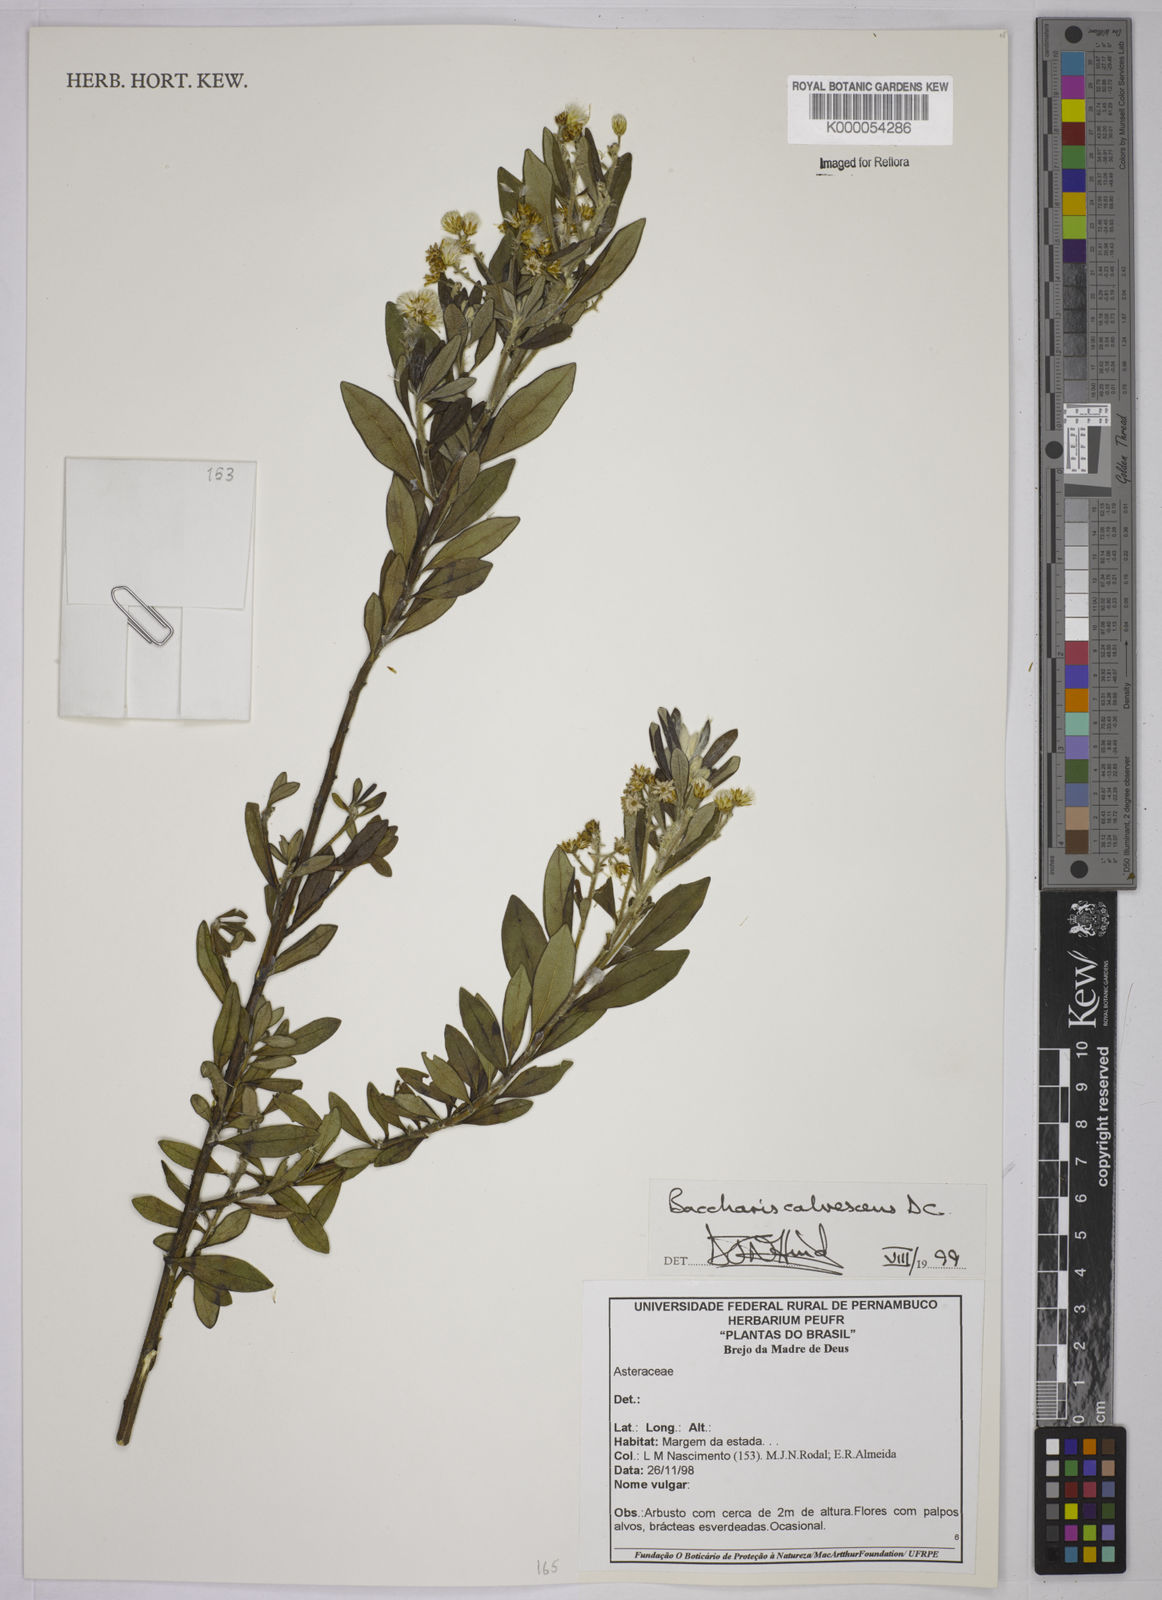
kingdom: Plantae
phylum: Tracheophyta
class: Magnoliopsida
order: Asterales
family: Asteraceae
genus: Baccharis
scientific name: Baccharis calvescens
